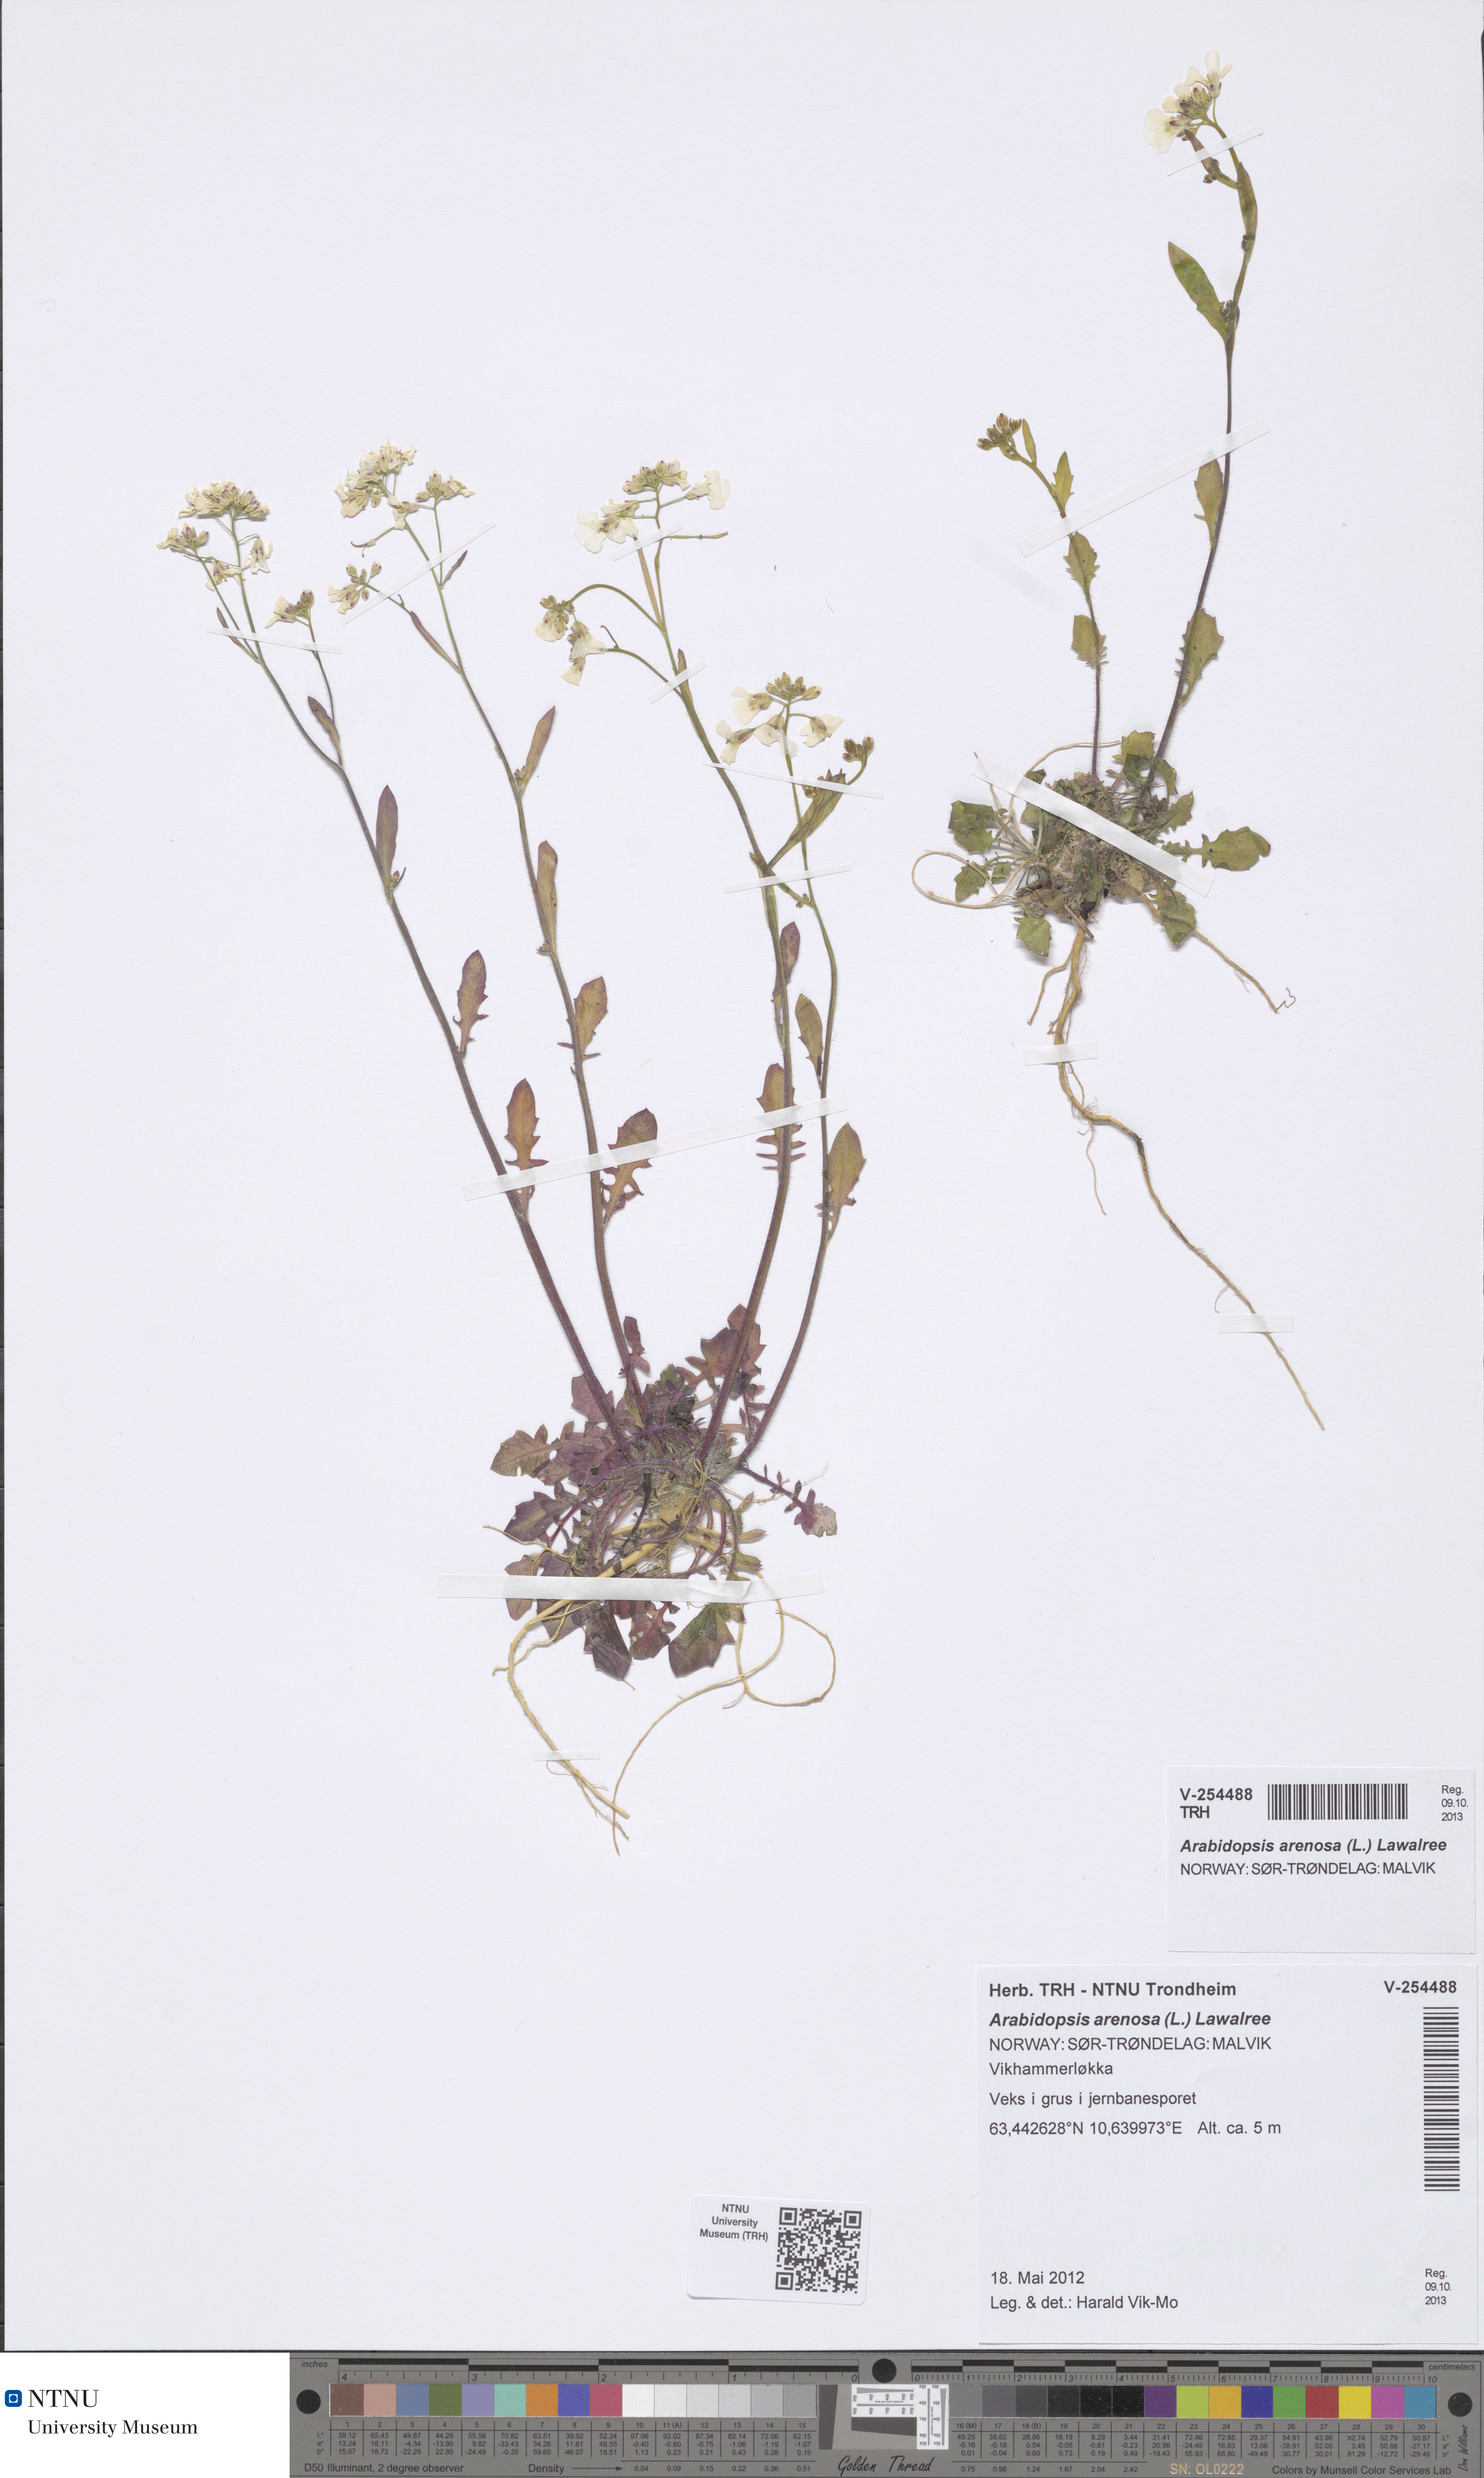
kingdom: Plantae
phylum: Tracheophyta
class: Magnoliopsida
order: Brassicales
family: Brassicaceae
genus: Arabidopsis
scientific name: Arabidopsis arenosa
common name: Sand rock-cress
